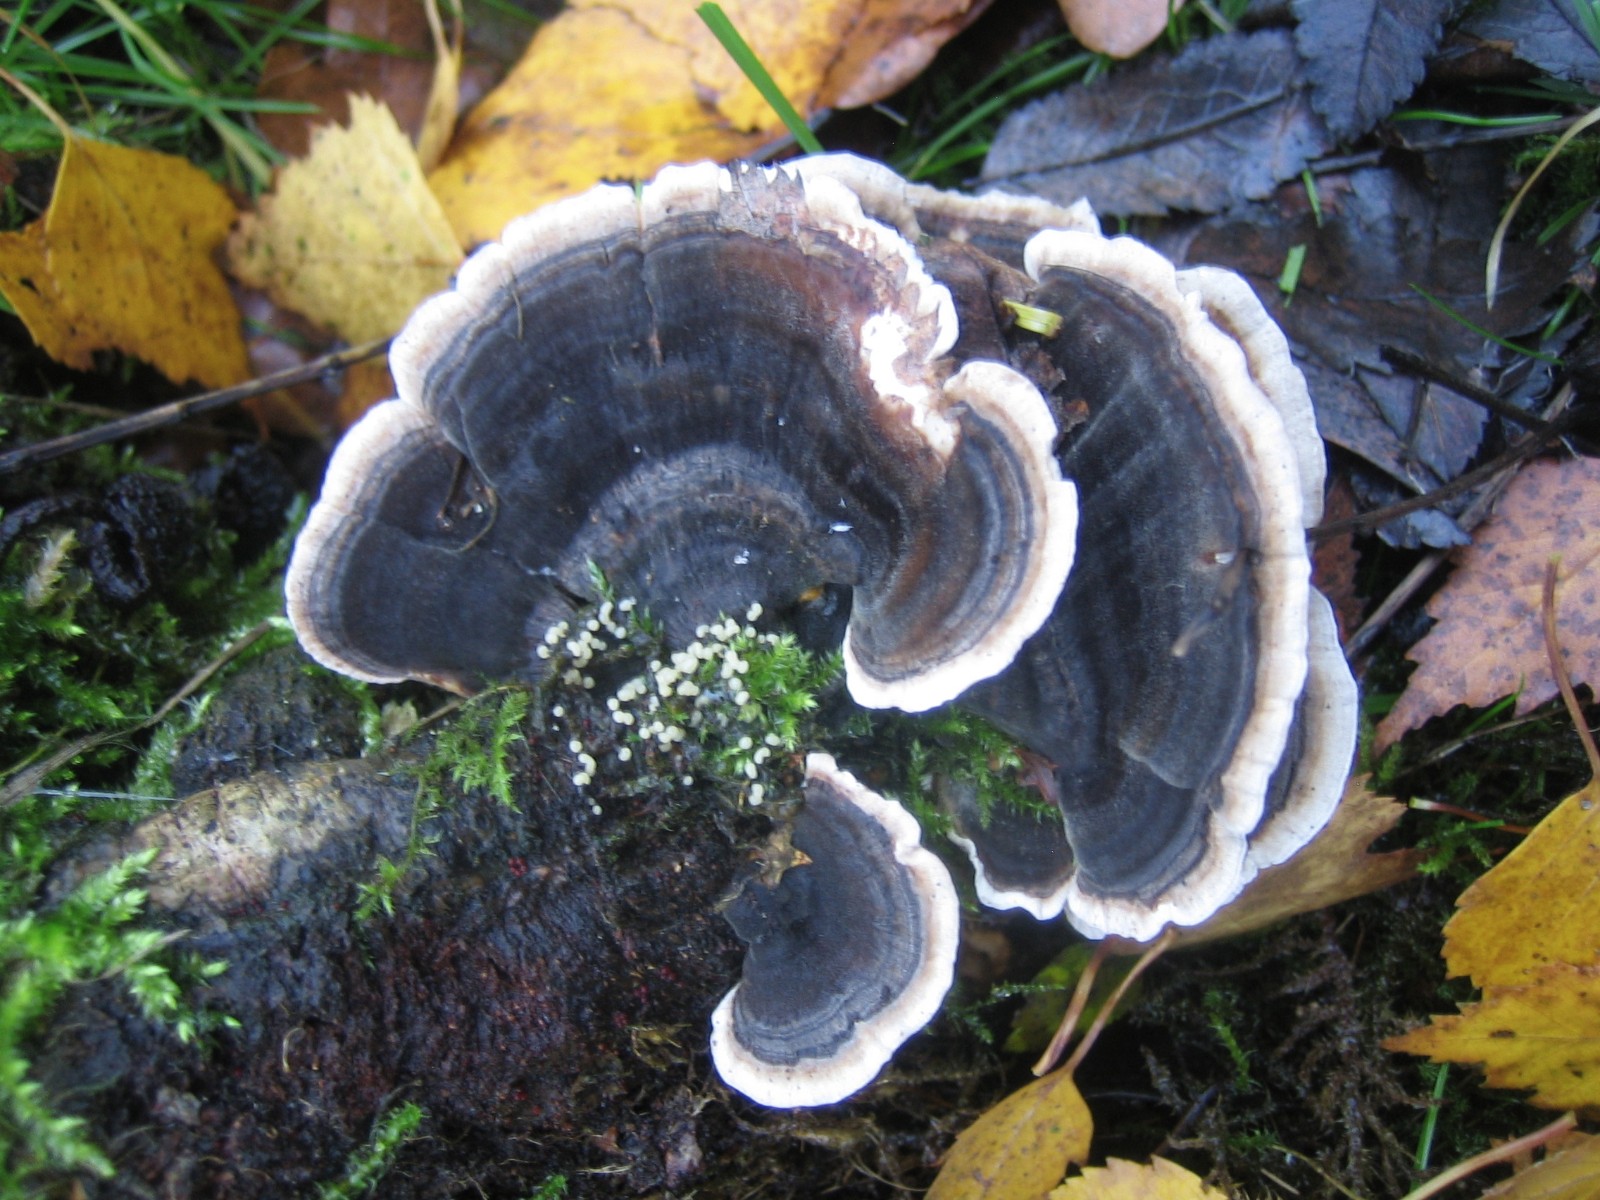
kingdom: Fungi
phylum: Basidiomycota
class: Agaricomycetes
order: Polyporales
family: Polyporaceae
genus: Trametes
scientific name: Trametes versicolor
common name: broget læderporesvamp
